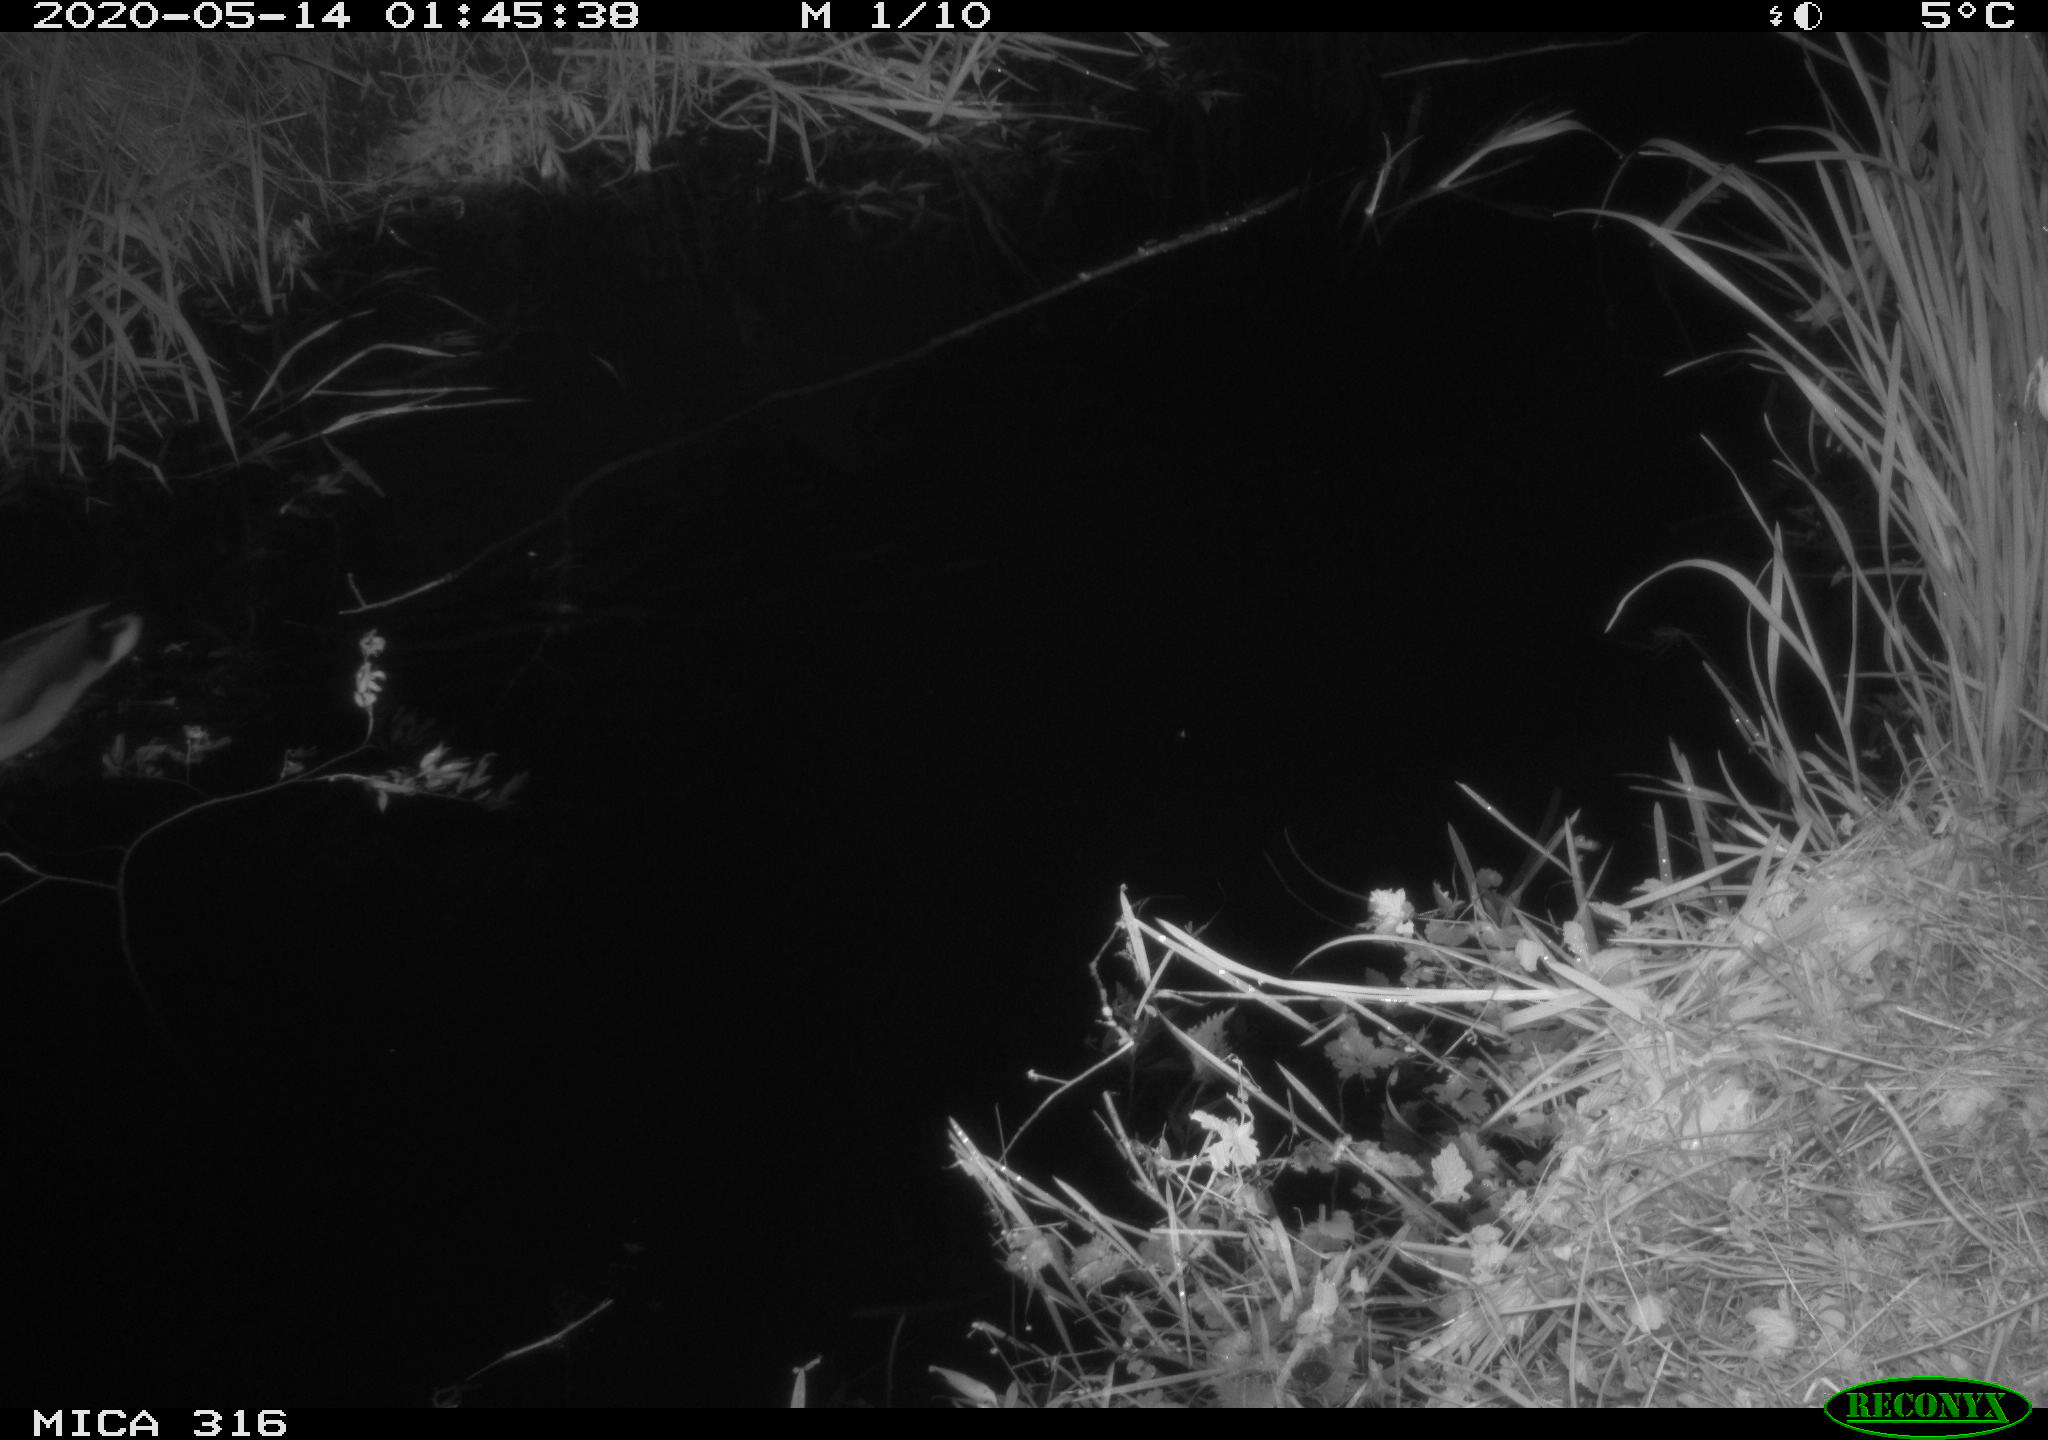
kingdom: Animalia
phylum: Chordata
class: Aves
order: Anseriformes
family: Anatidae
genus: Anas
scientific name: Anas platyrhynchos
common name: Mallard
